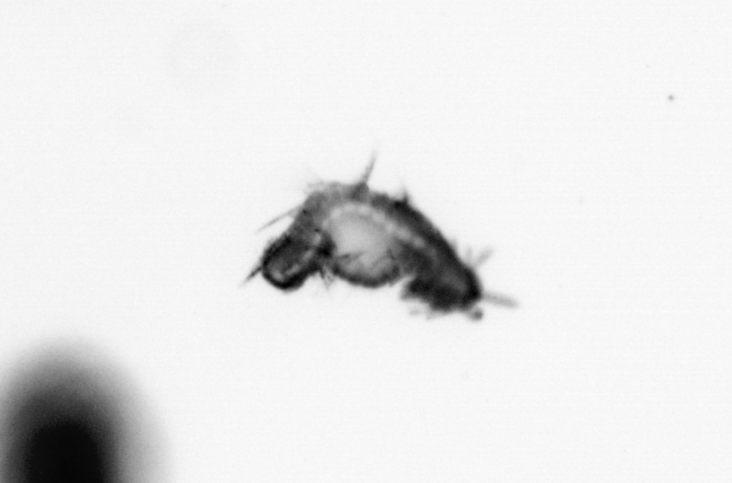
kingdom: Animalia
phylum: Annelida
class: Polychaeta
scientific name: Polychaeta
